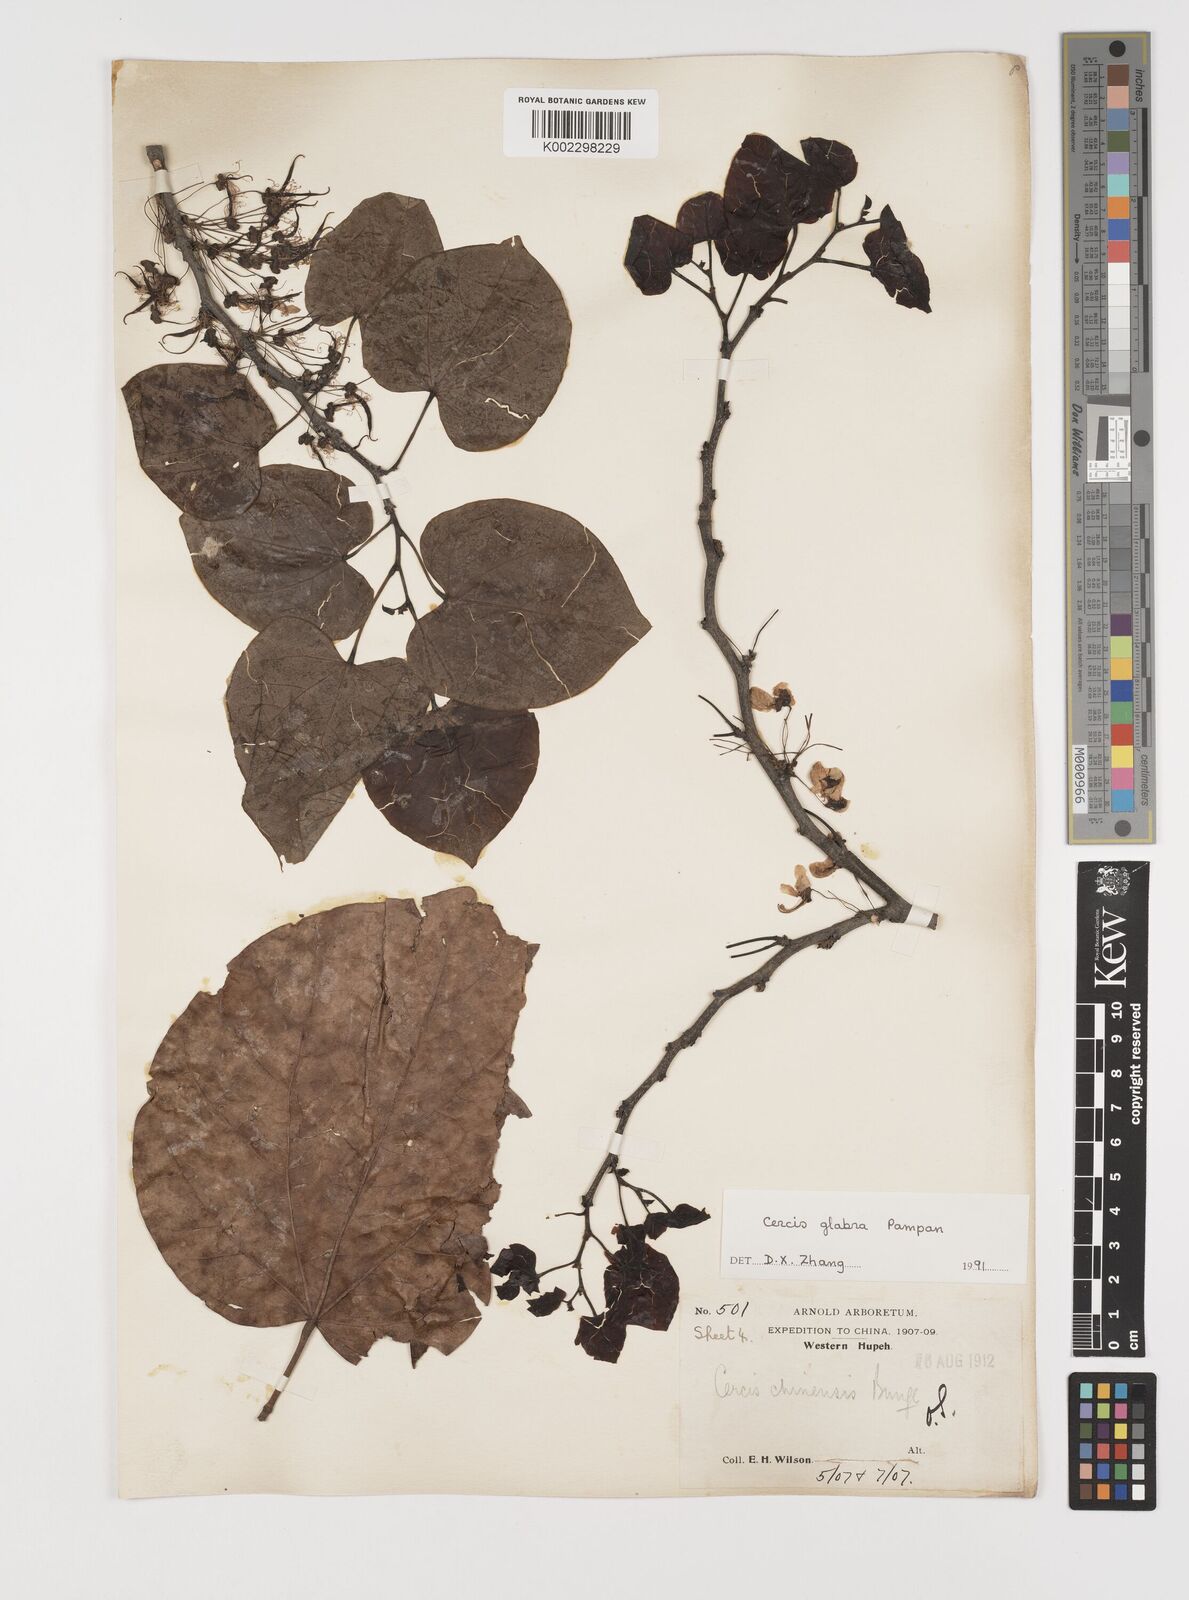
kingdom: Plantae
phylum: Tracheophyta
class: Magnoliopsida
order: Fabales
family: Fabaceae
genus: Cercis
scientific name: Cercis glabra
